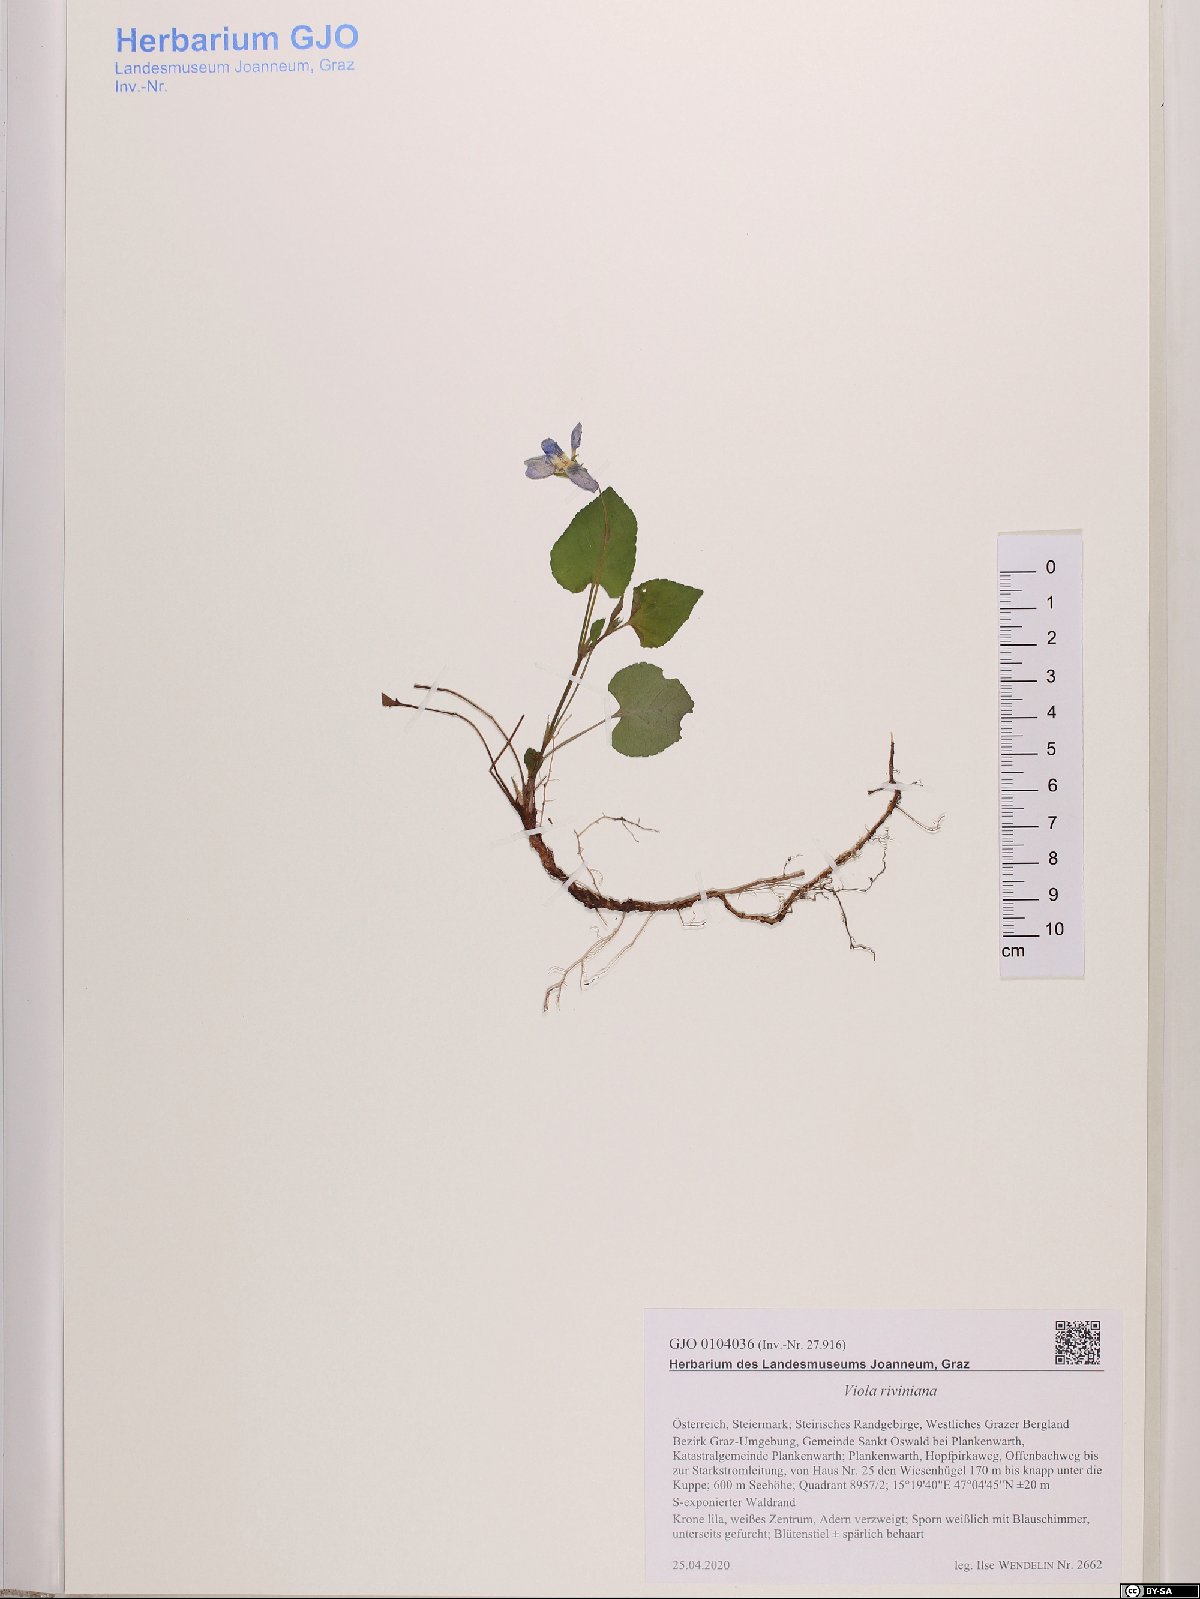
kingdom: Plantae
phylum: Tracheophyta
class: Magnoliopsida
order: Malpighiales
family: Violaceae
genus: Viola
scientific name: Viola riviniana
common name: Common dog-violet
